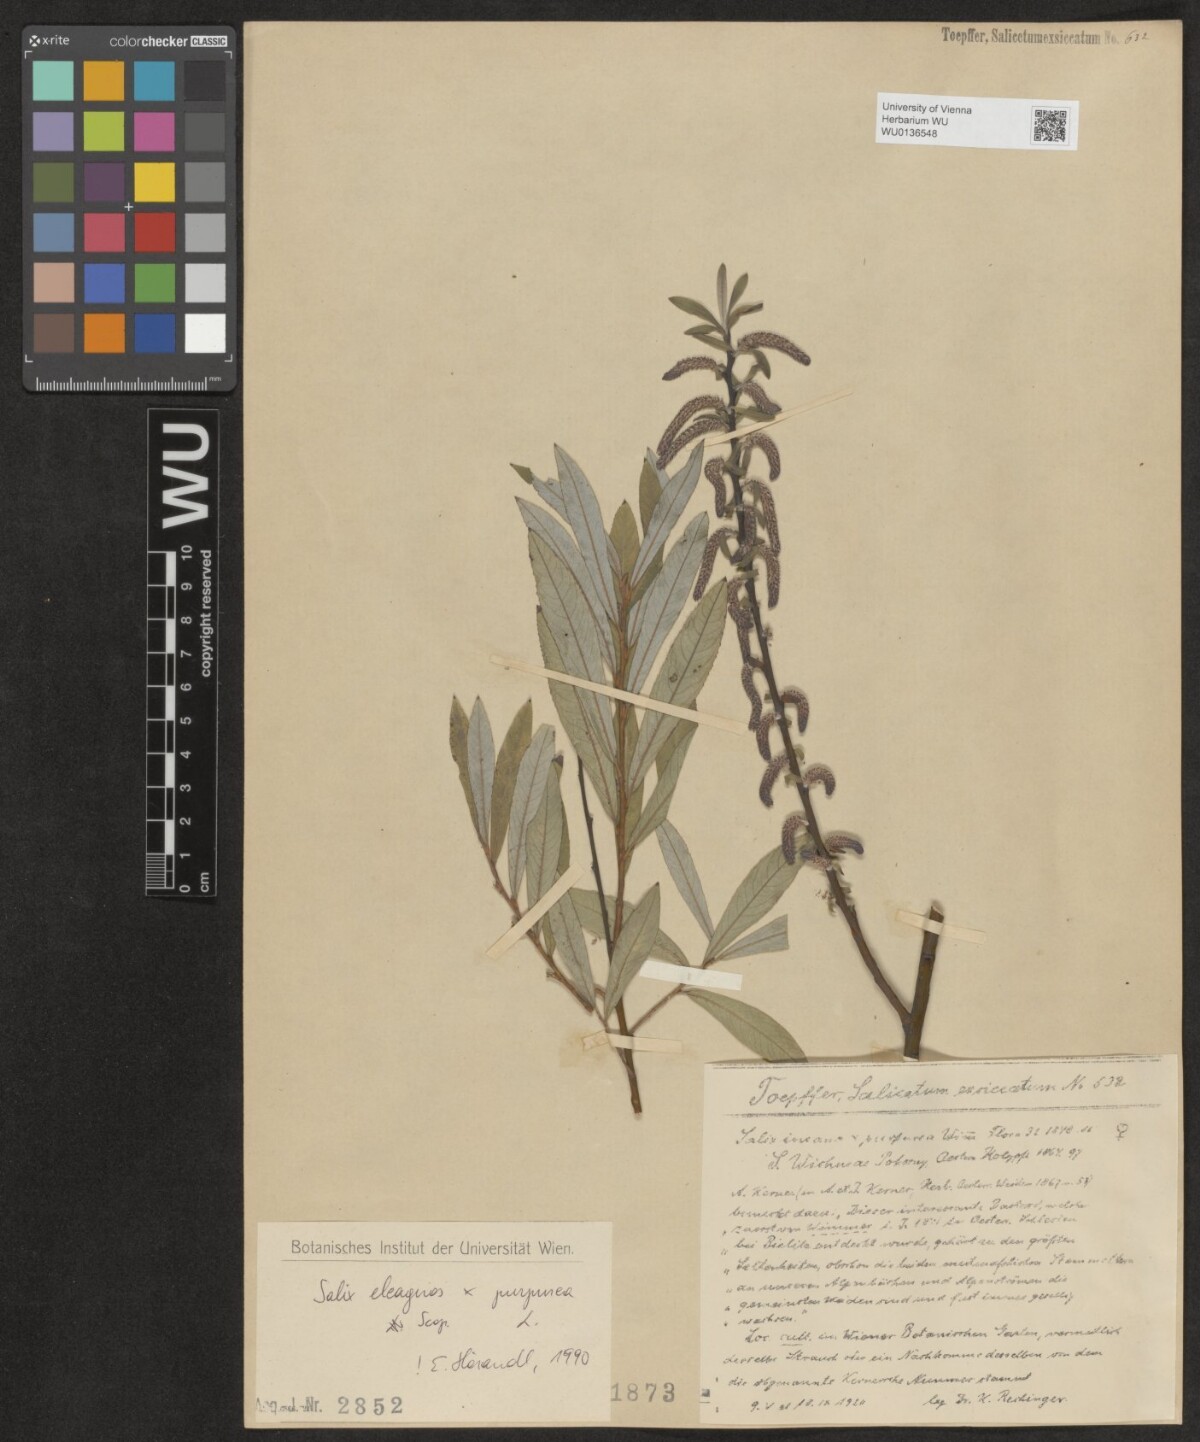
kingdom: Plantae
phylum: Tracheophyta
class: Magnoliopsida
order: Malpighiales
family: Salicaceae
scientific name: Salicaceae
